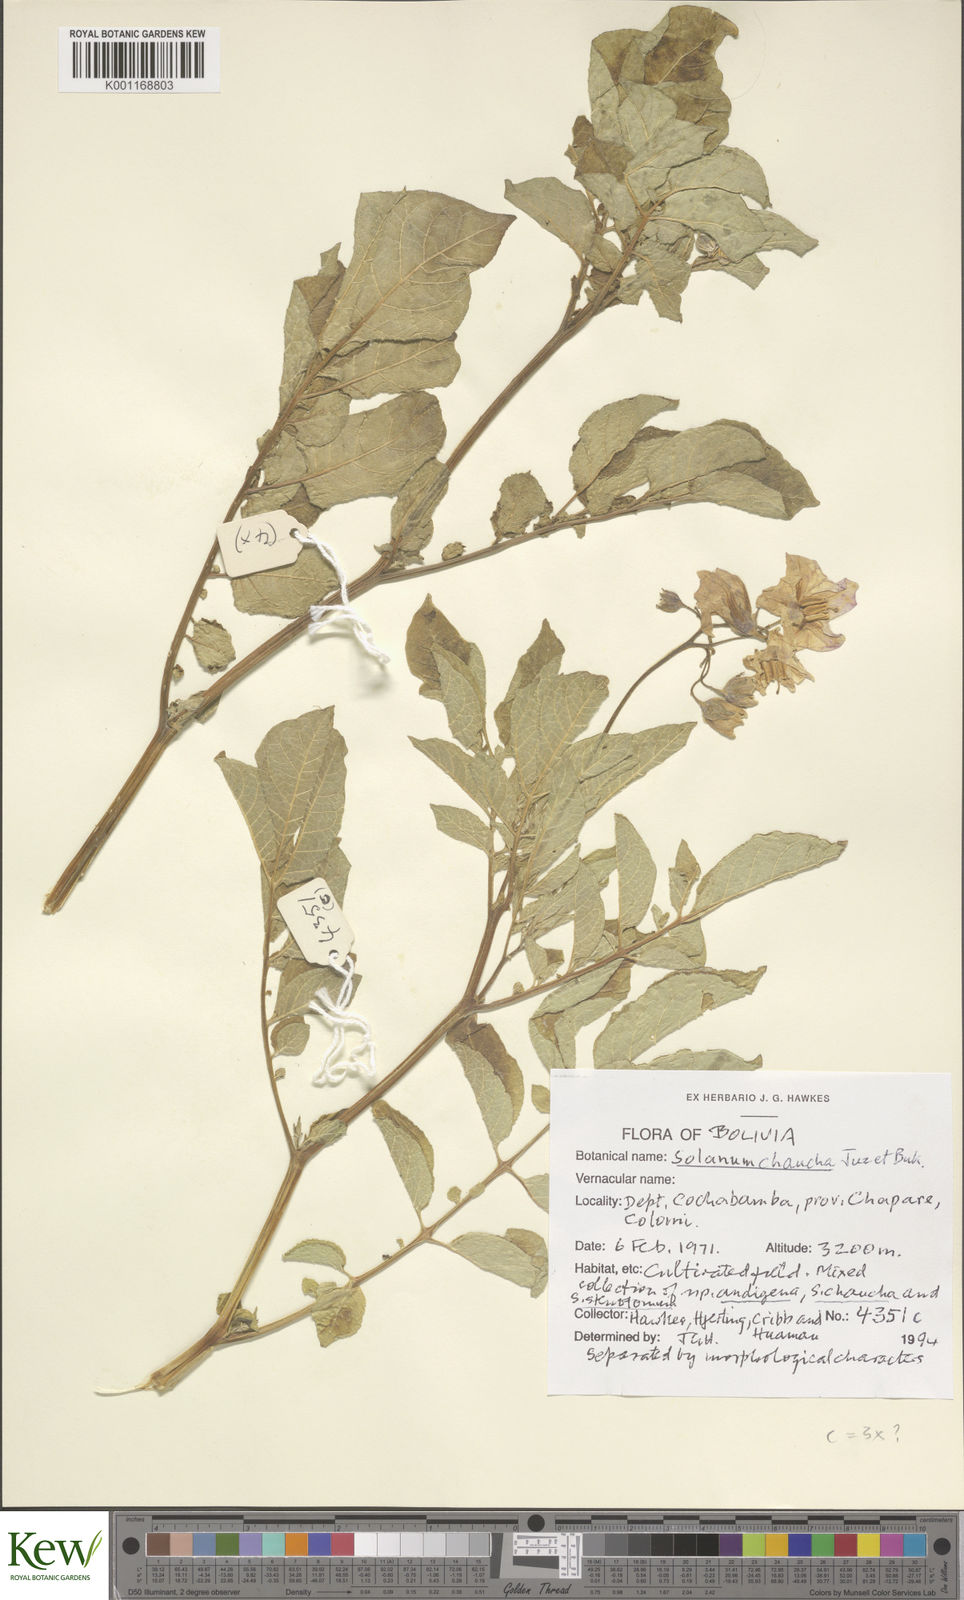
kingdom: Plantae
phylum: Tracheophyta
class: Magnoliopsida
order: Solanales
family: Solanaceae
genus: Solanum
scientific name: Solanum chaucha
